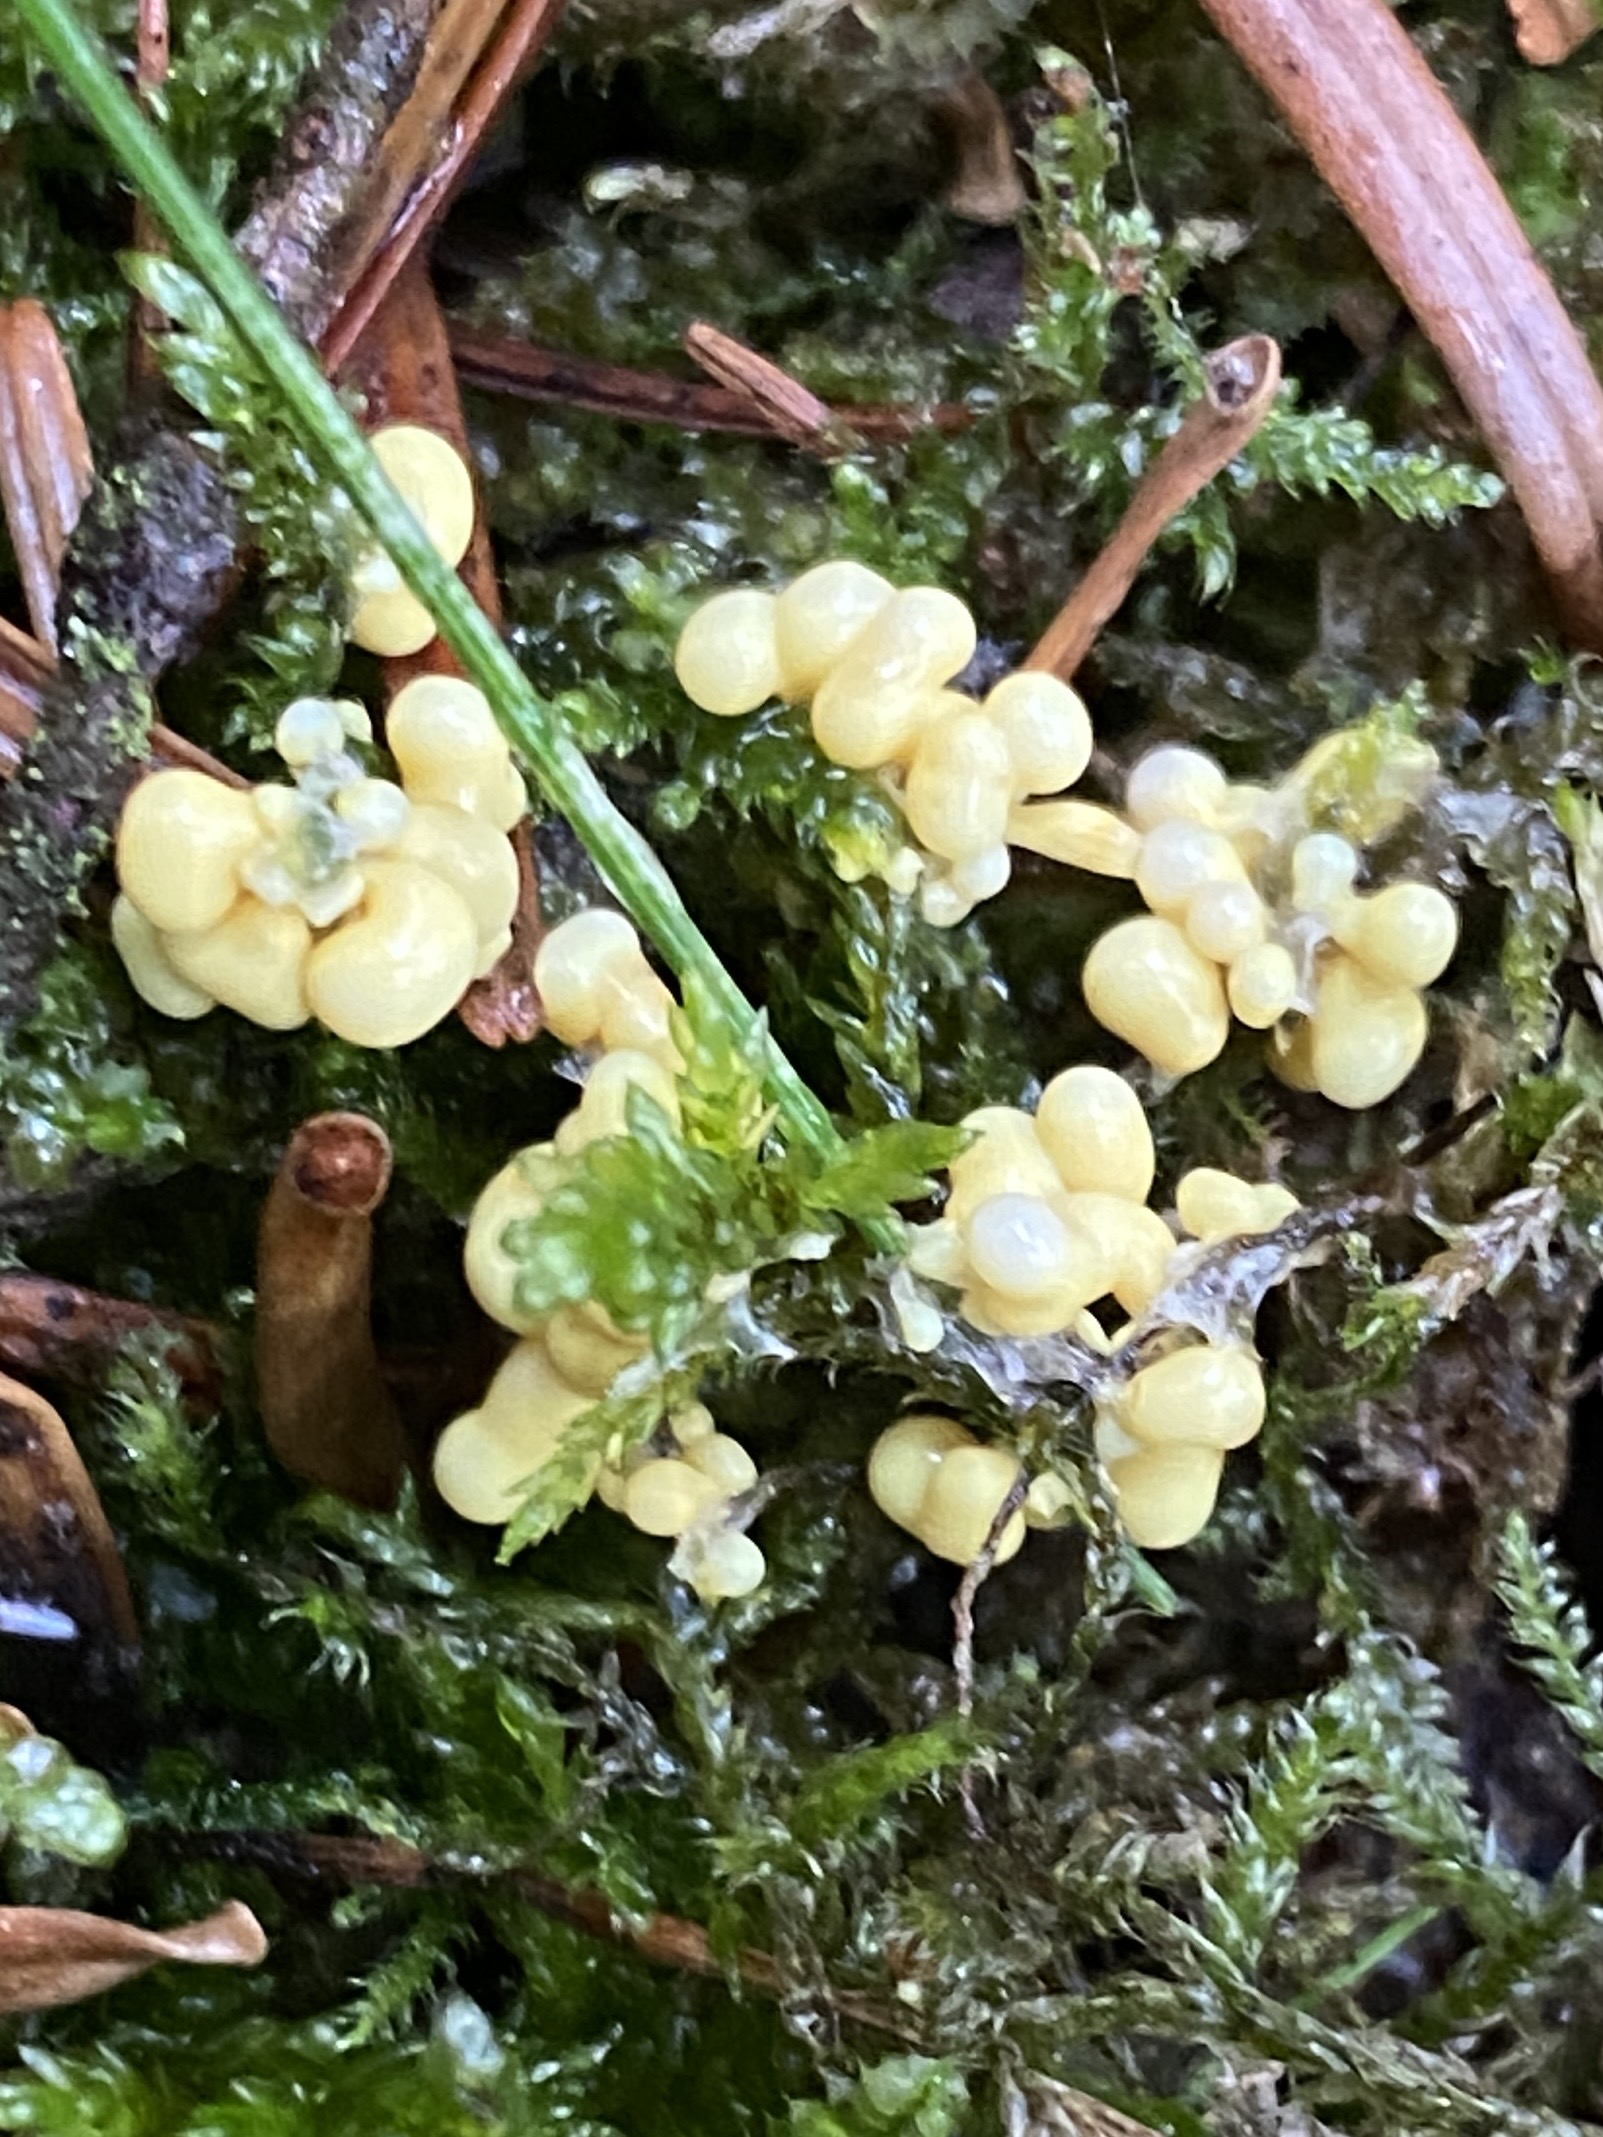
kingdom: Protozoa
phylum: Mycetozoa
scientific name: Mycetozoa
